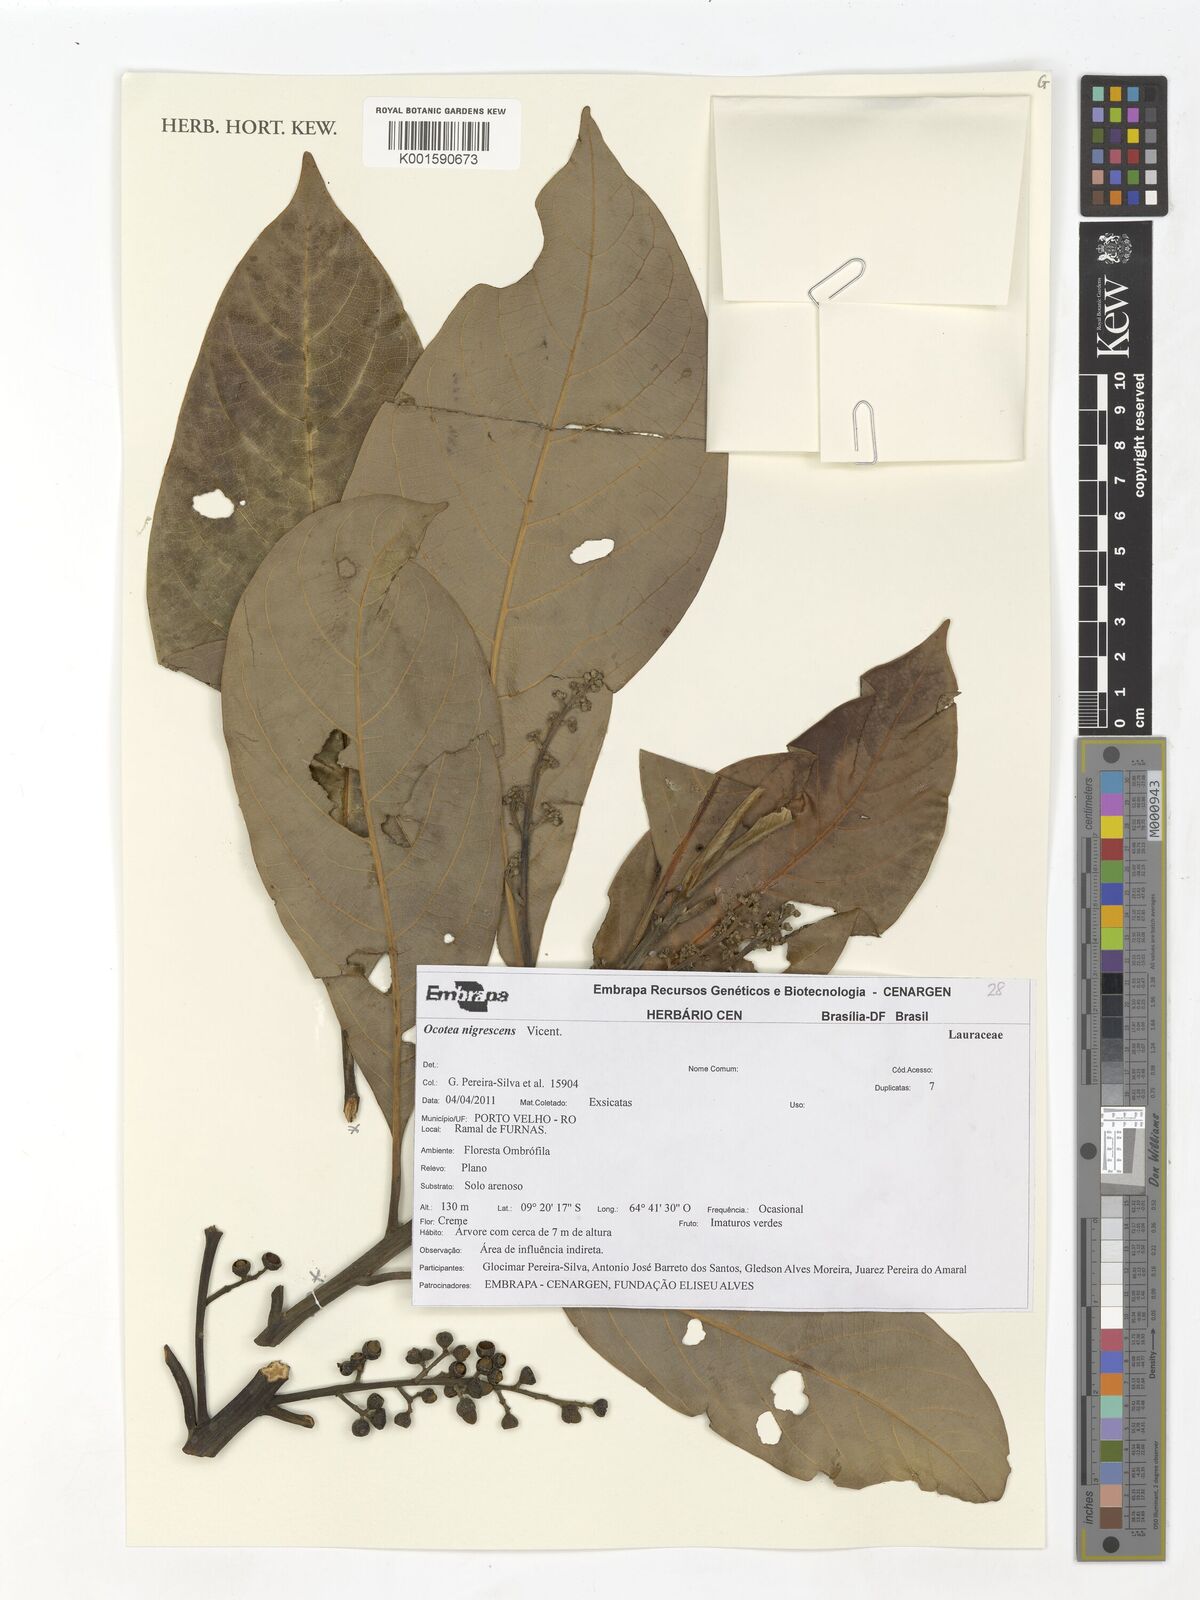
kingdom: Plantae
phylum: Tracheophyta
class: Magnoliopsida
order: Laurales
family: Lauraceae
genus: Ocotea
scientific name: Ocotea nigrescens
